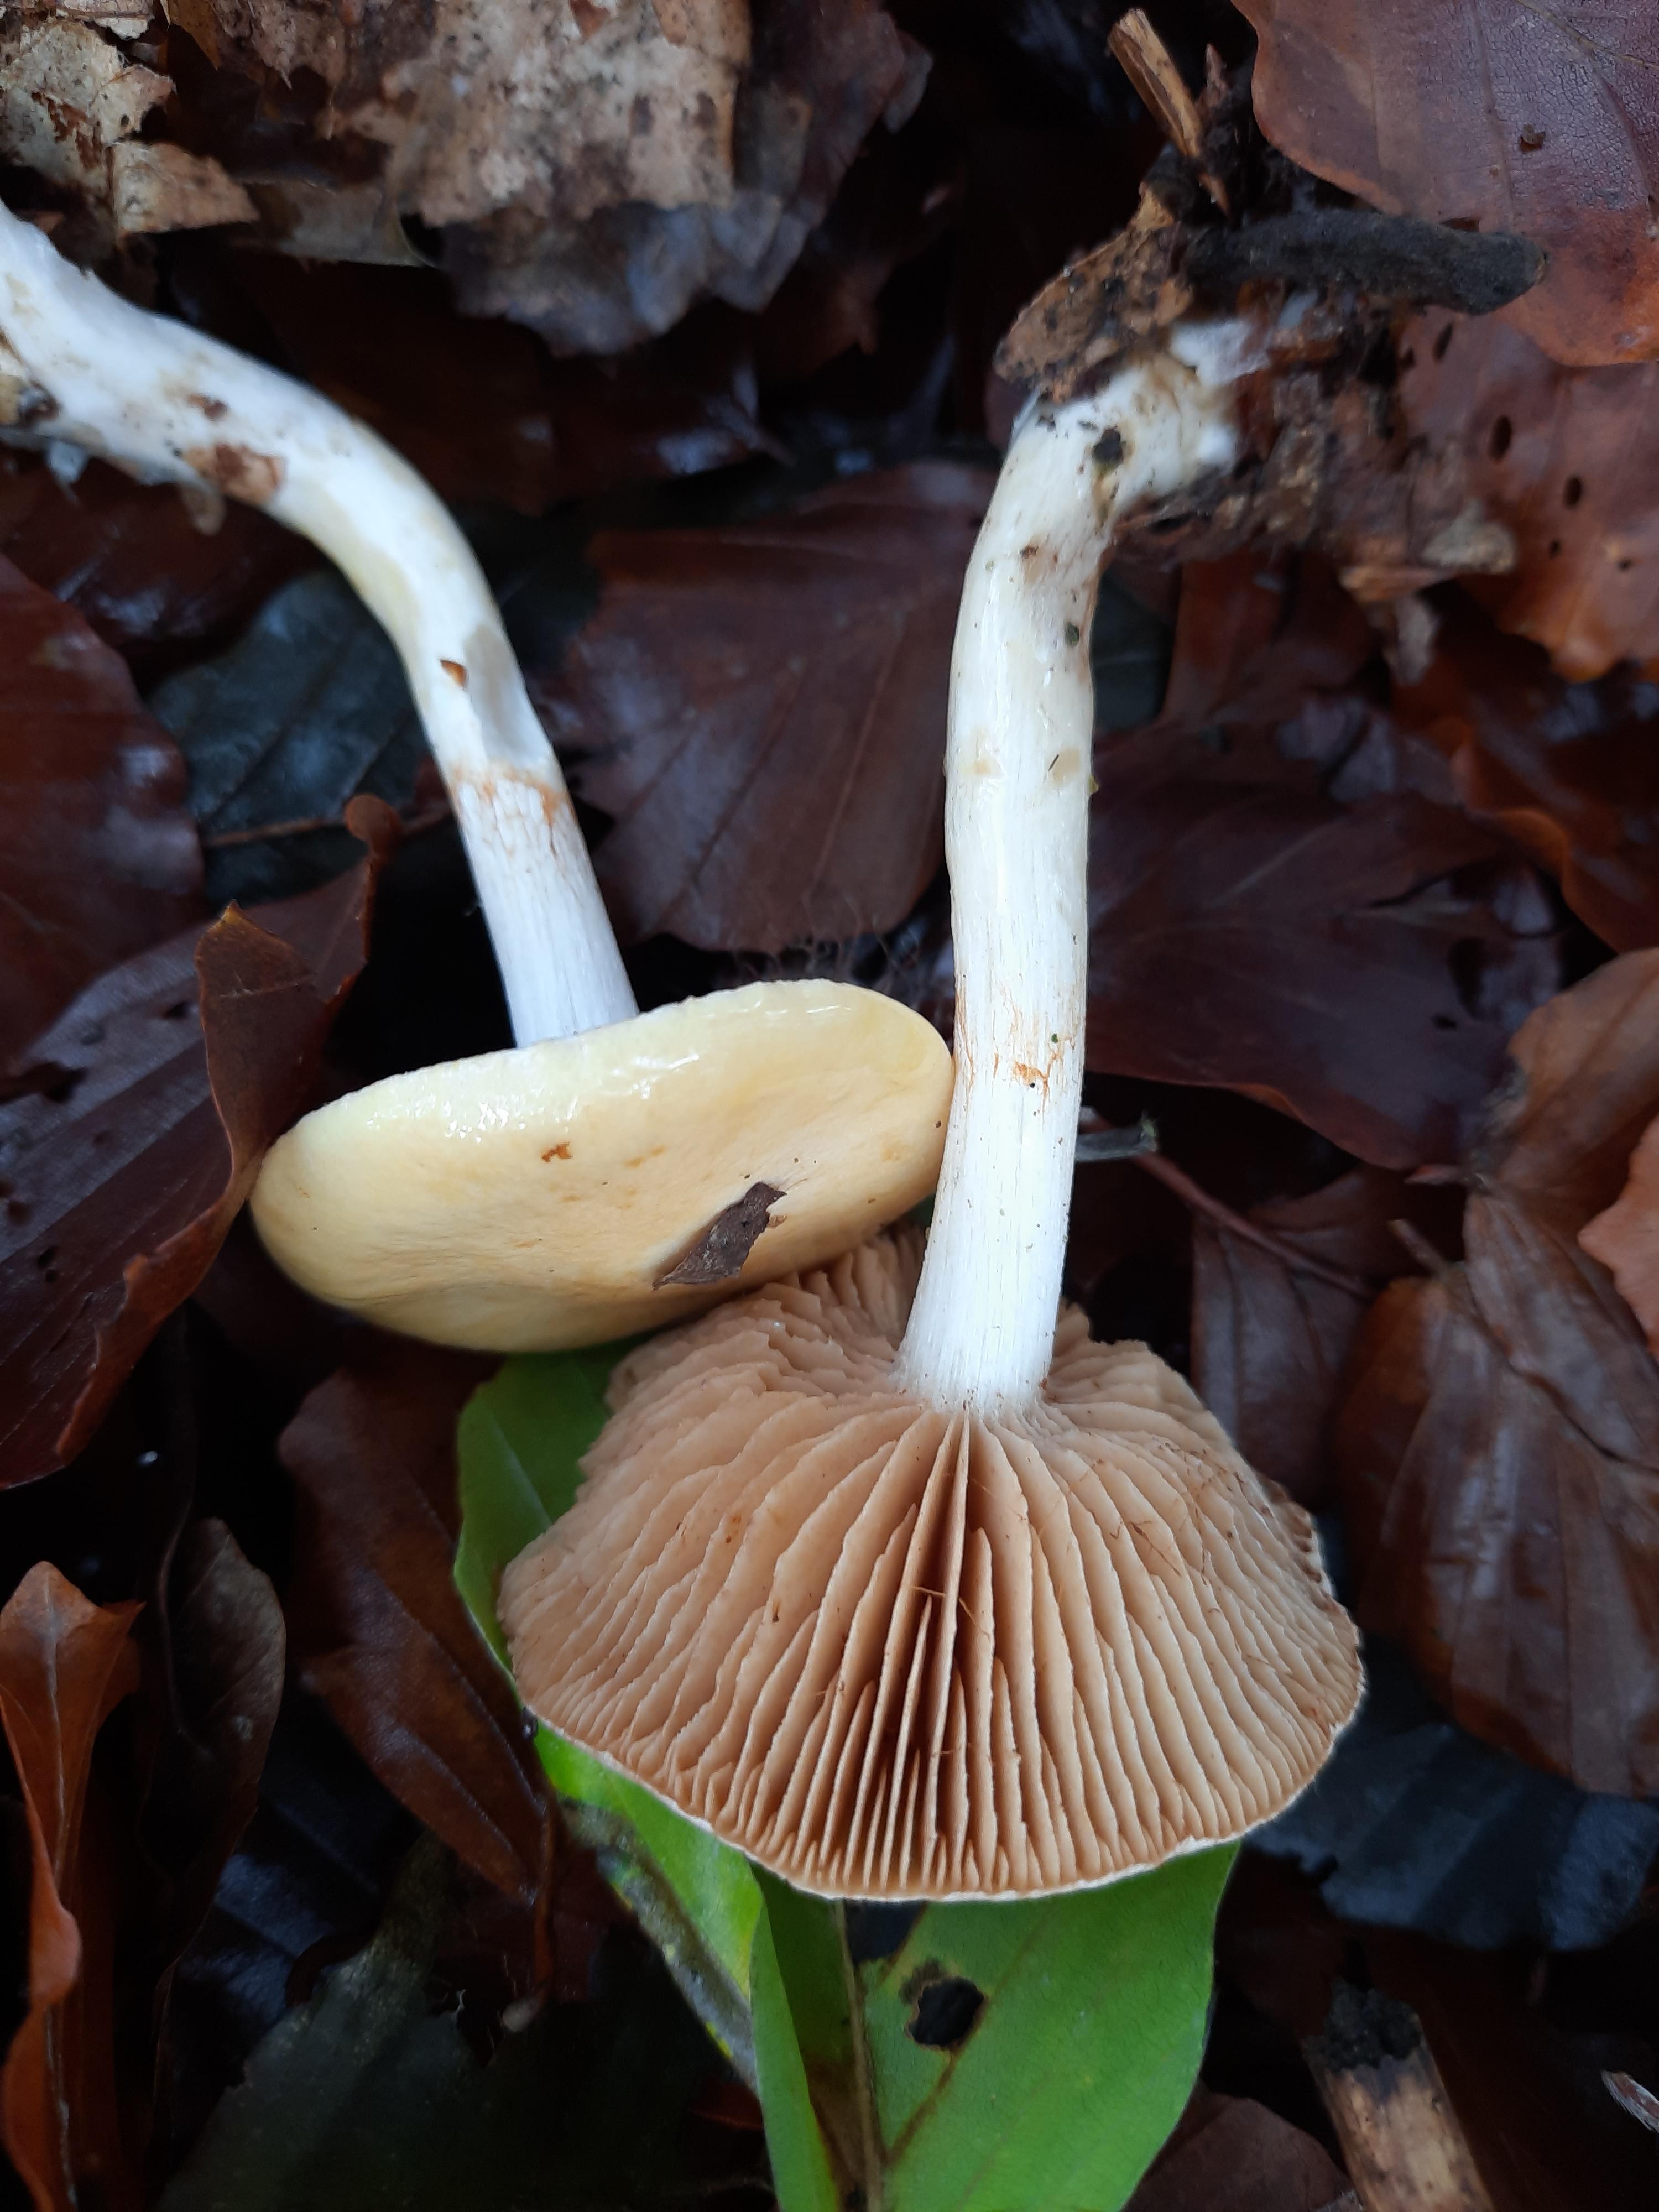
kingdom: Fungi
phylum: Basidiomycota
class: Agaricomycetes
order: Agaricales
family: Cortinariaceae
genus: Cortinarius
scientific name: Cortinarius
